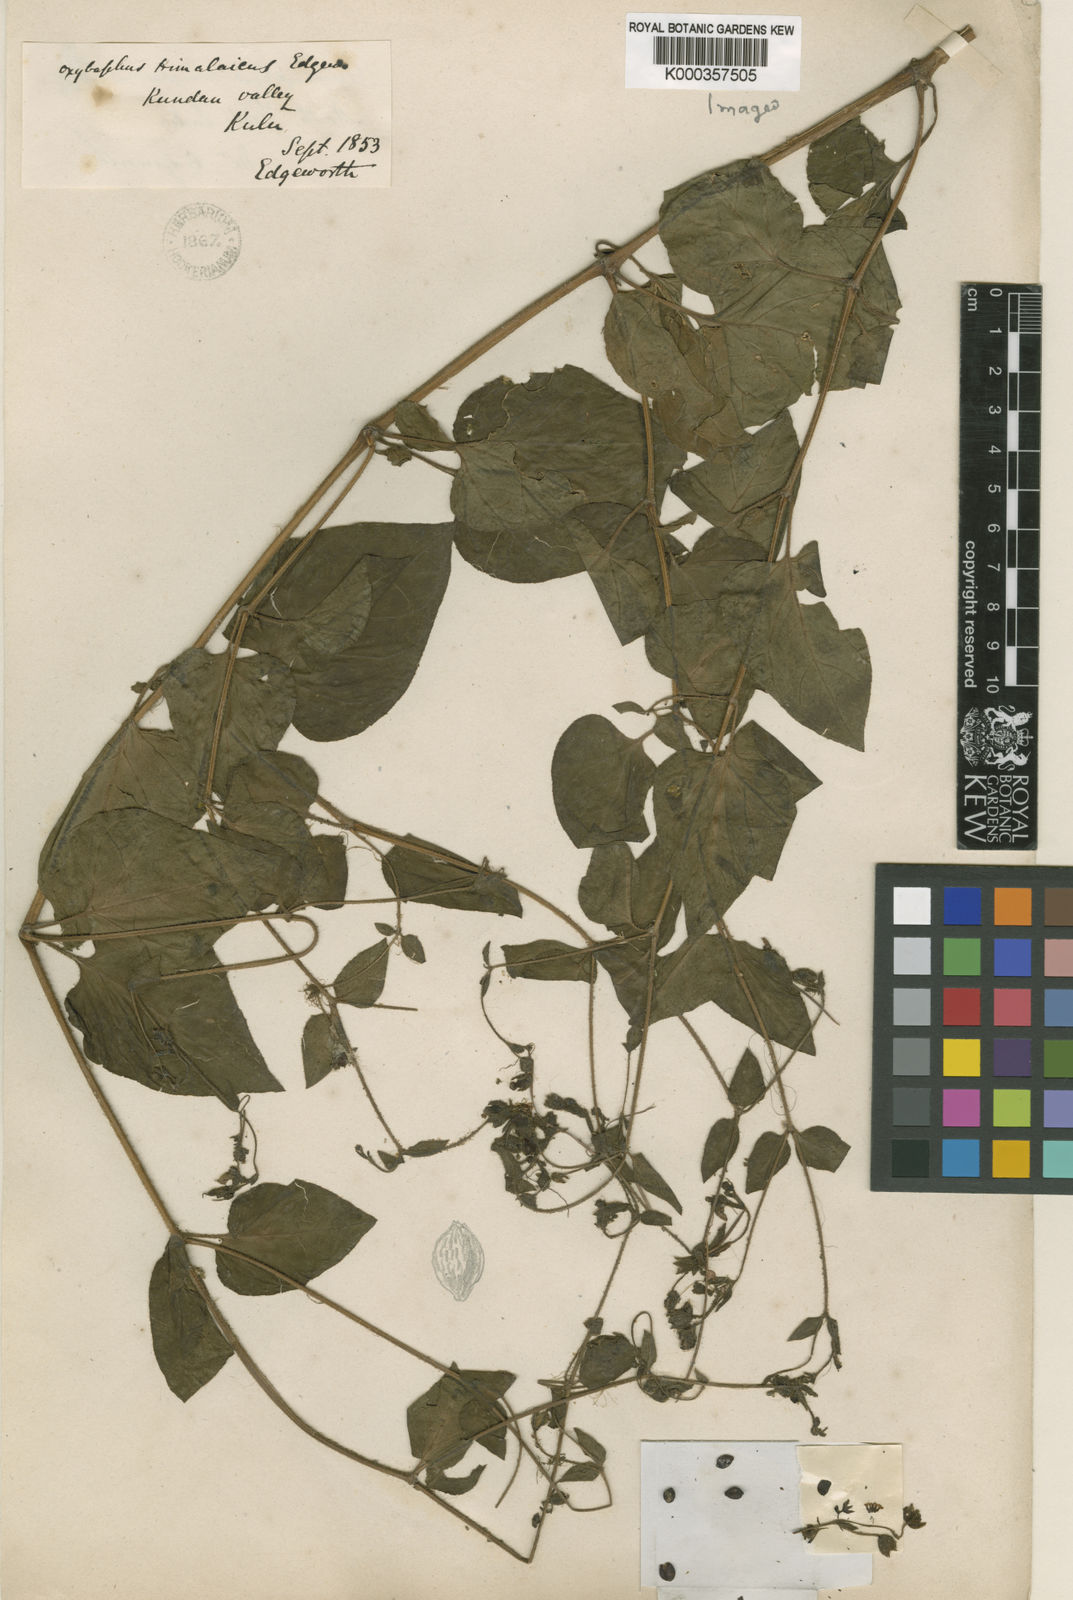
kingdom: Plantae
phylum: Tracheophyta
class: Magnoliopsida
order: Caryophyllales
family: Nyctaginaceae
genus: Mirabilis
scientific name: Mirabilis himalaica
